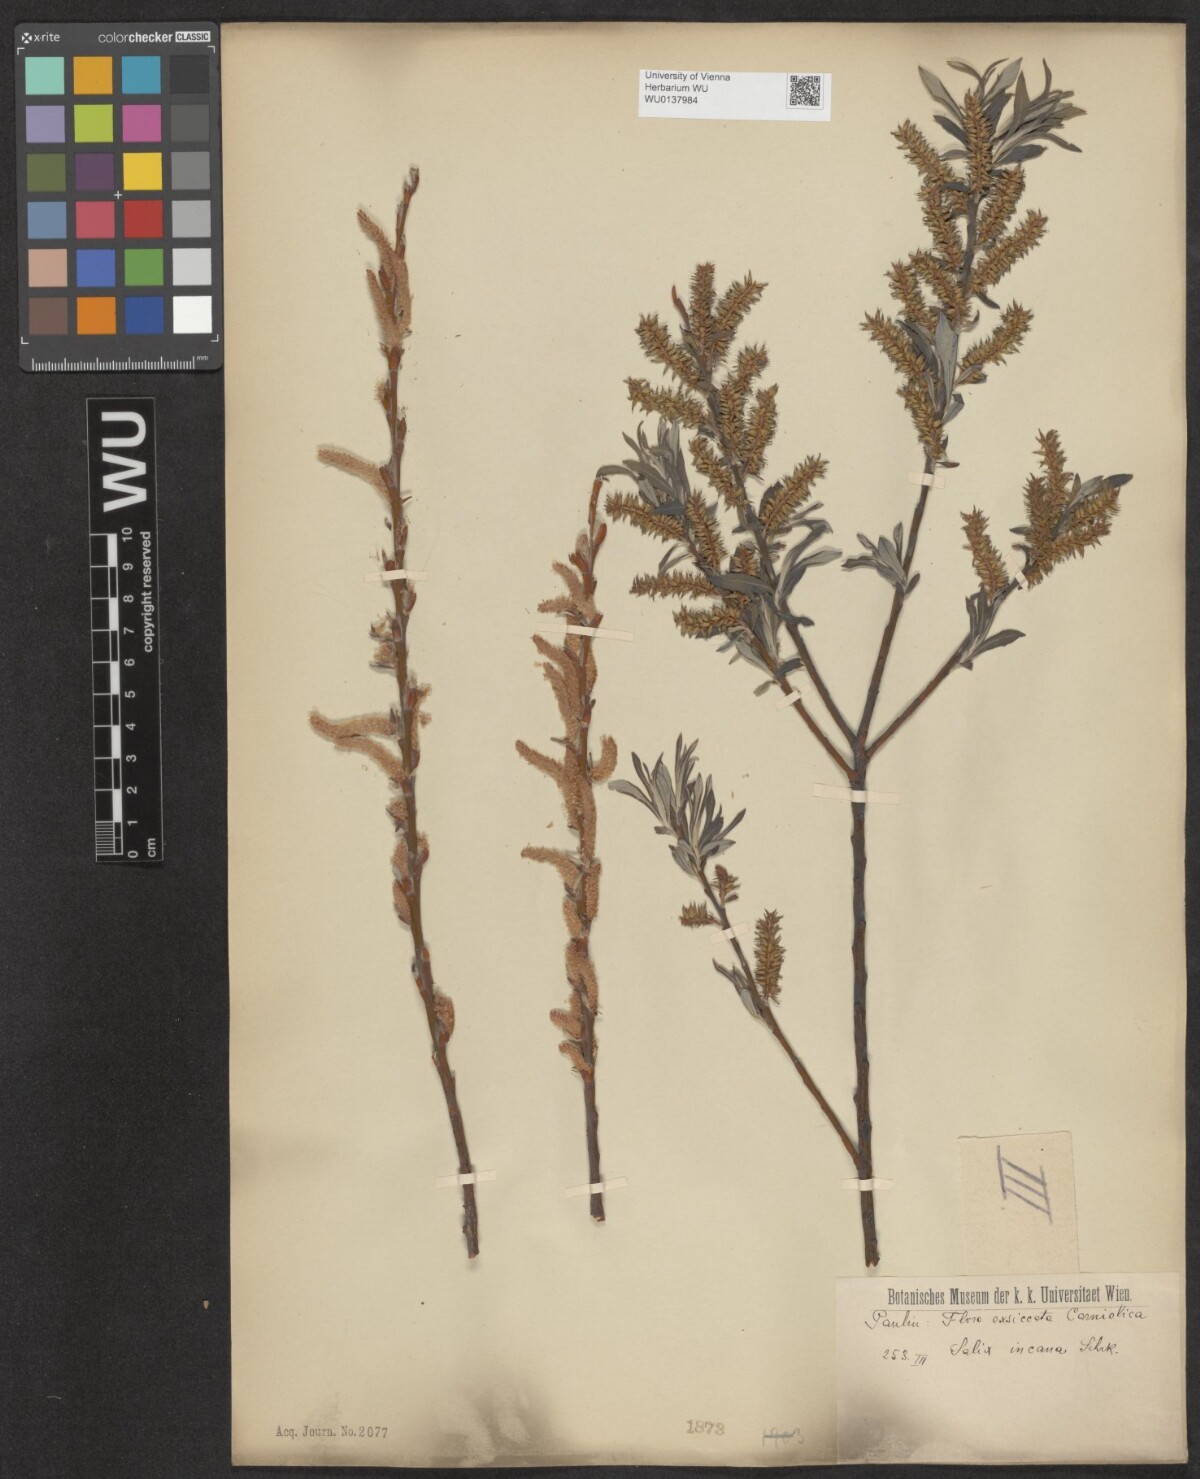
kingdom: Plantae
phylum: Tracheophyta
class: Magnoliopsida
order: Malpighiales
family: Salicaceae
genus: Salix
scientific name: Salix eleagnos
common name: Elaeagnus willow
